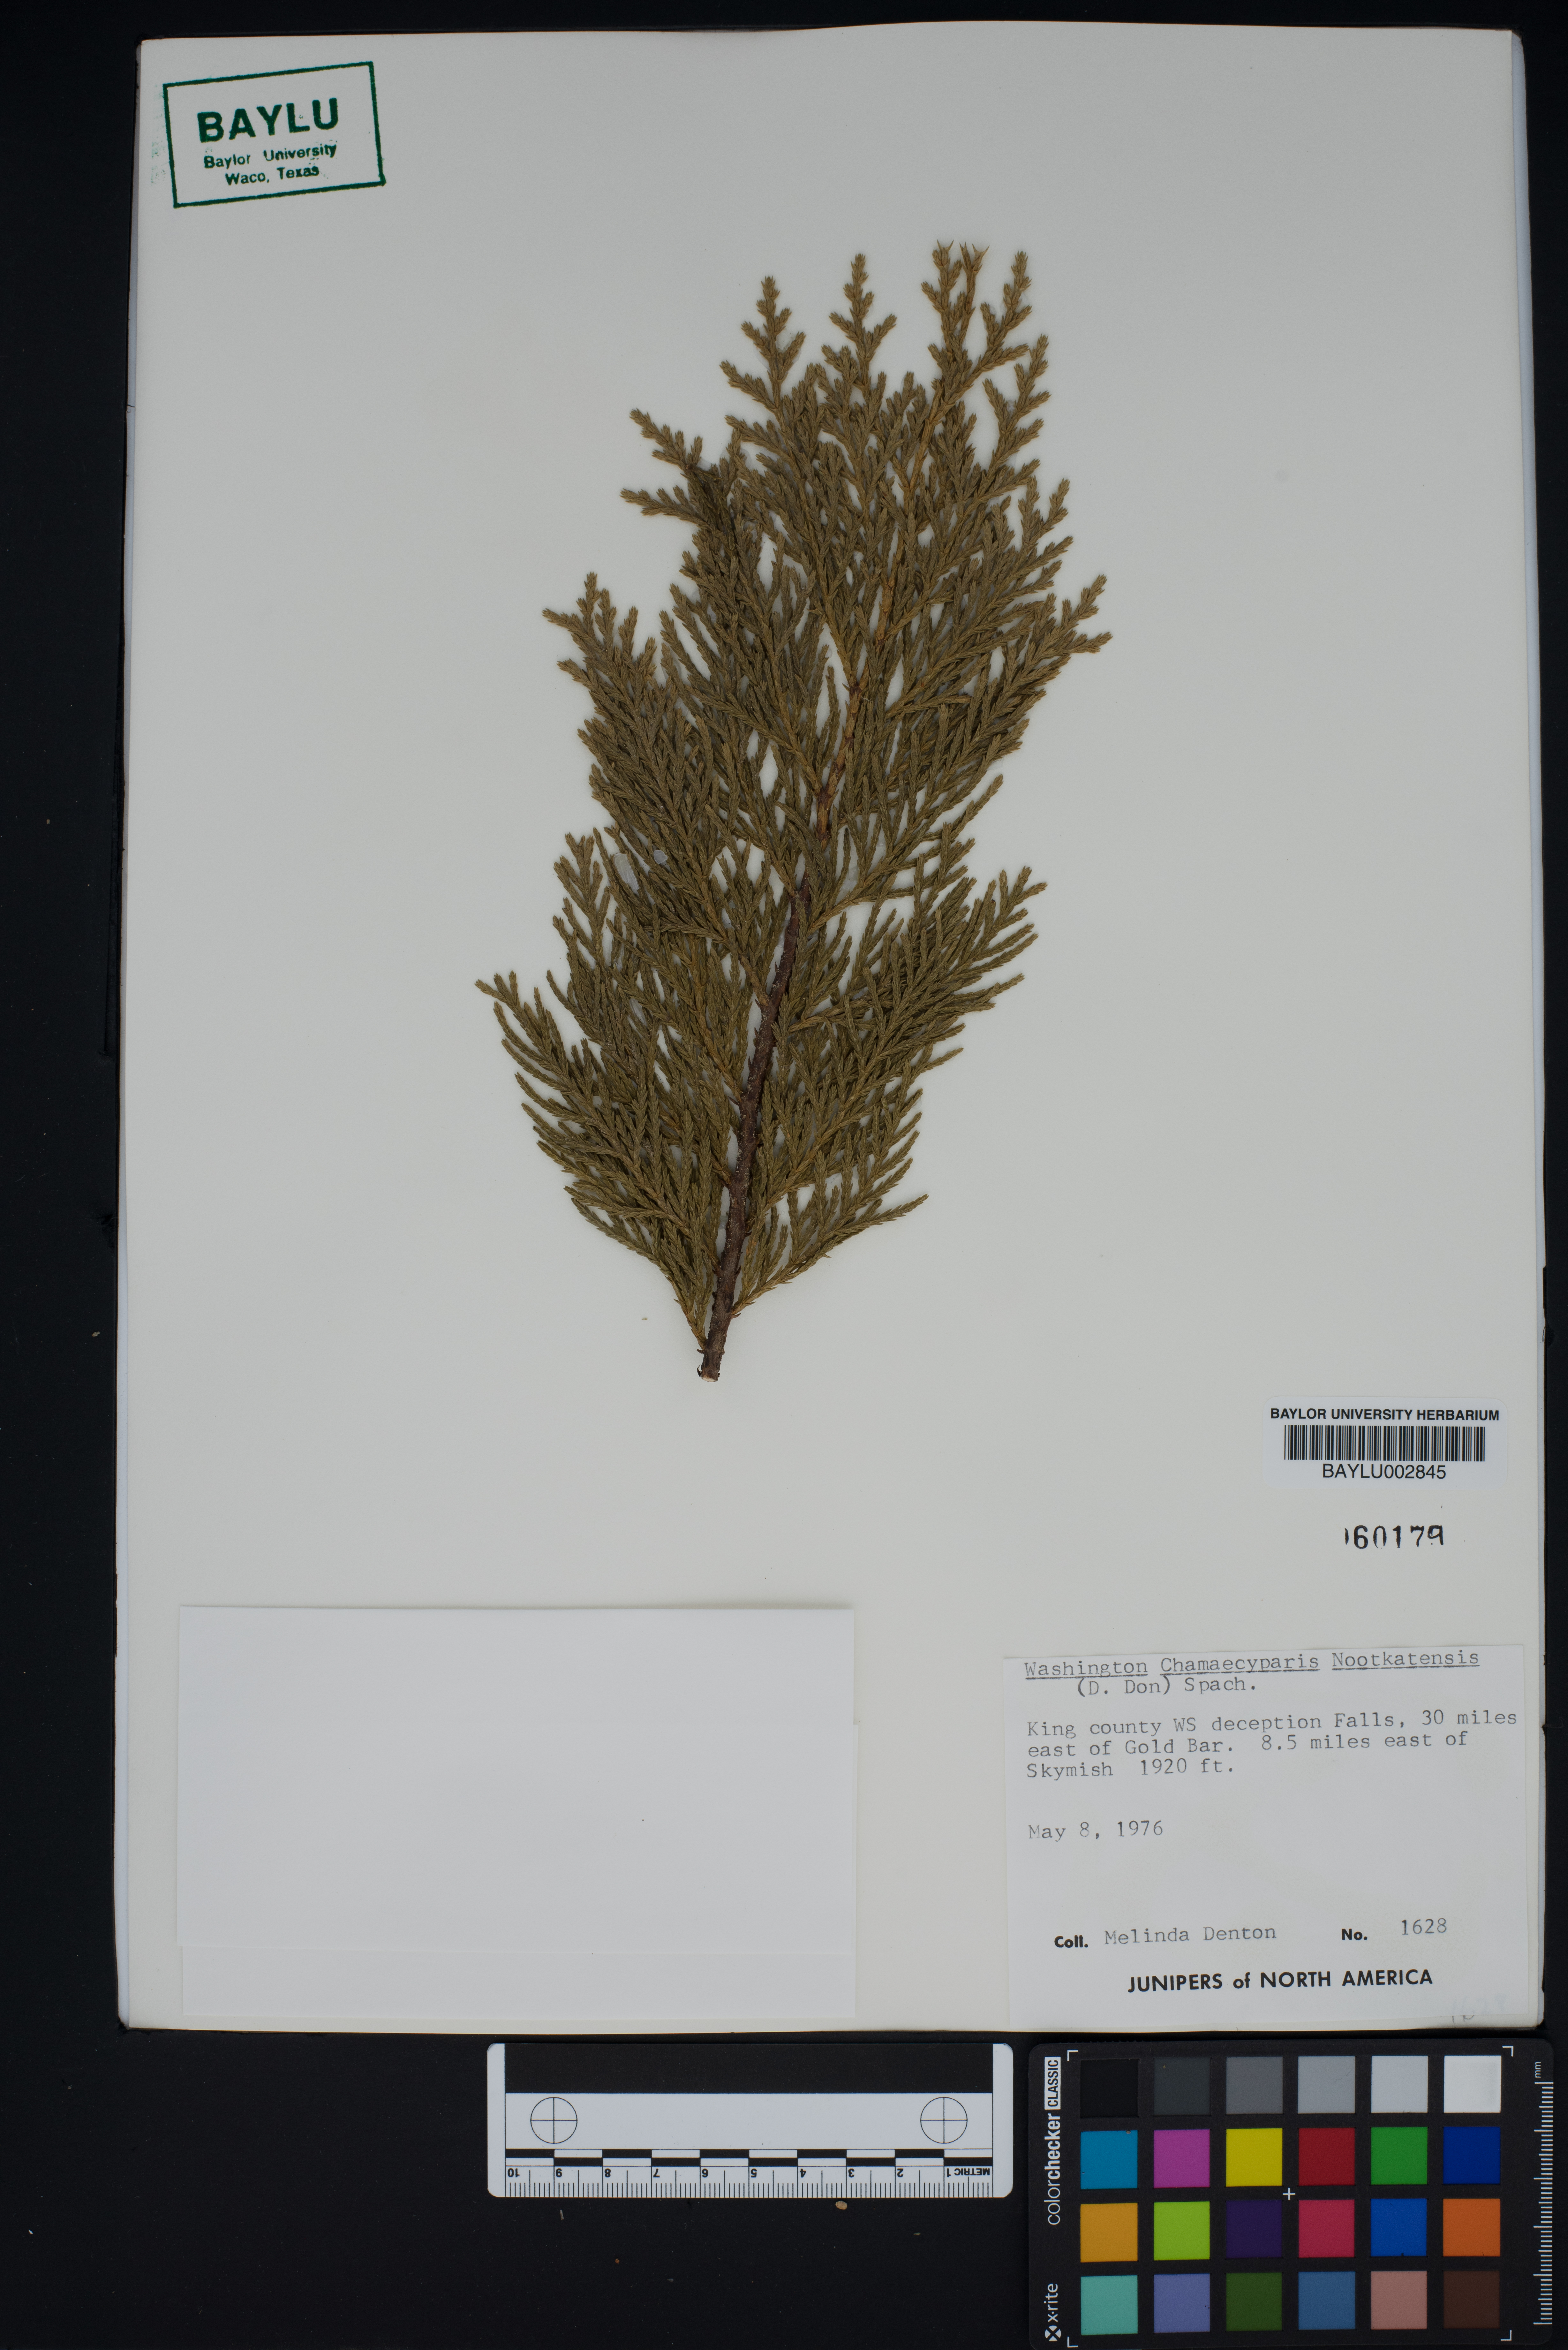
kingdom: Plantae
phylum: Tracheophyta
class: Pinopsida
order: Pinales
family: Cupressaceae
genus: Xanthocyparis
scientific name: Xanthocyparis nootkatensis
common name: Nootka cypress
